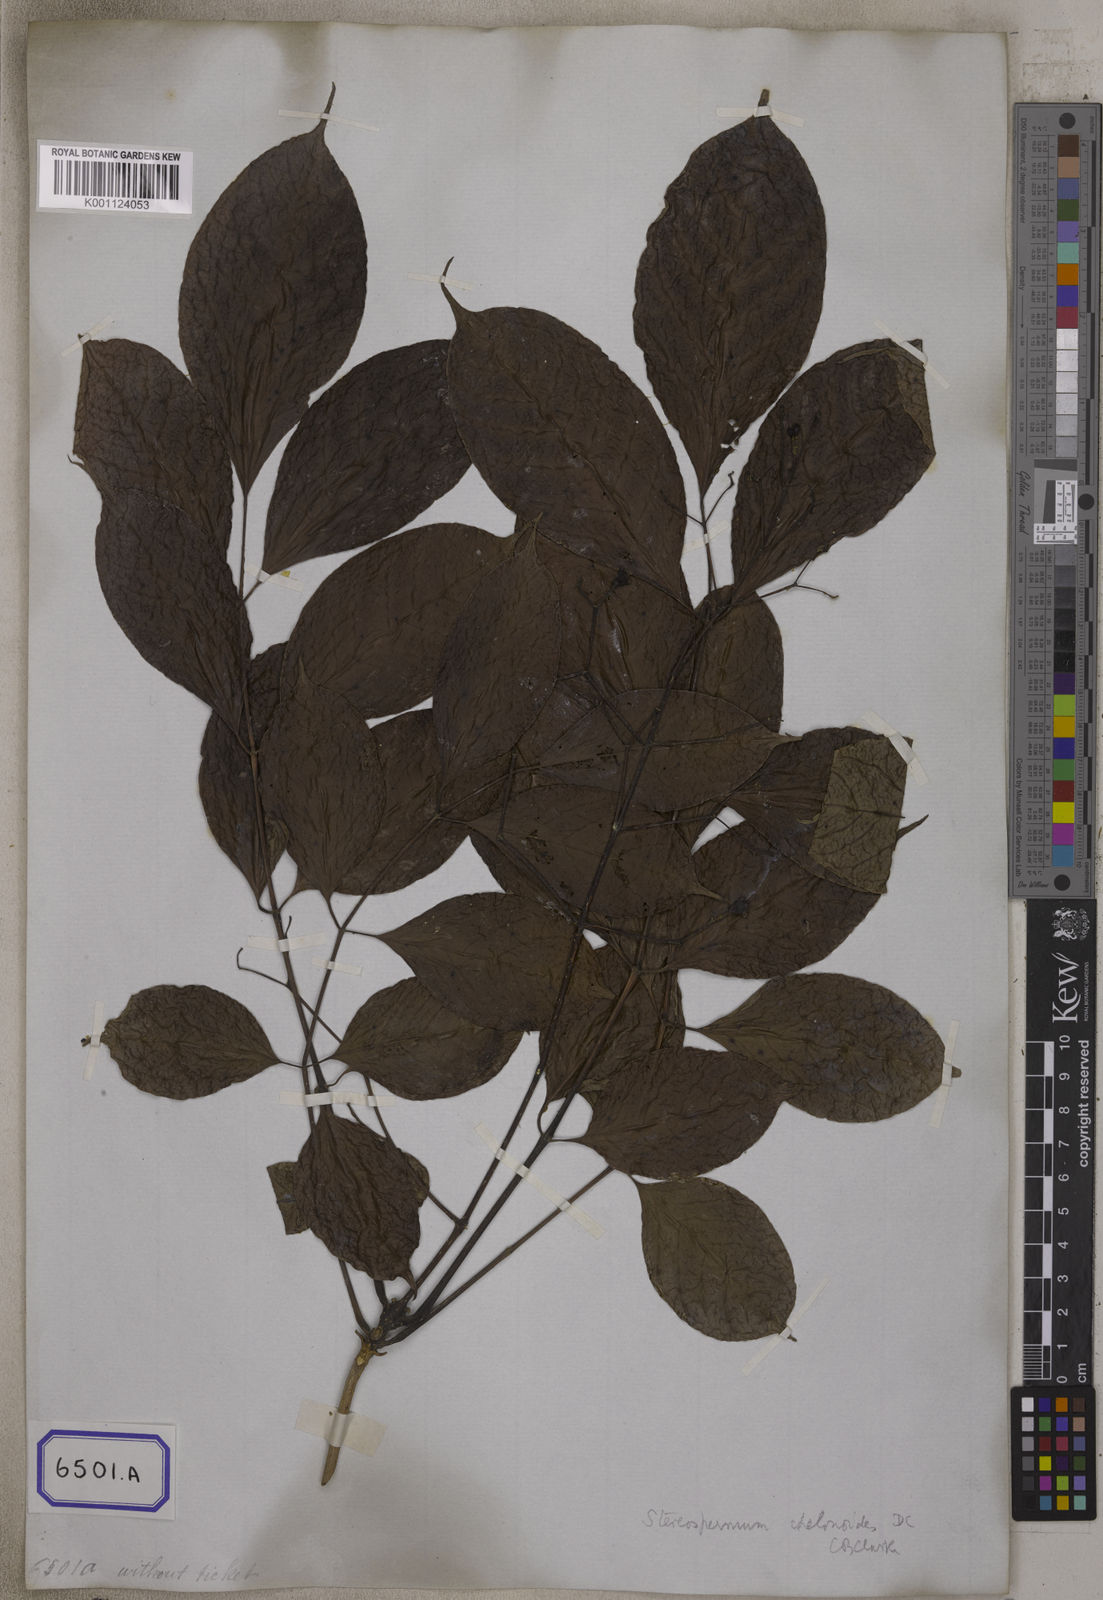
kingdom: Plantae
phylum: Tracheophyta
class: Magnoliopsida
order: Lamiales
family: Bignoniaceae
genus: Stereospermum
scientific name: Stereospermum chelonoides
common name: Fragrant padritree
